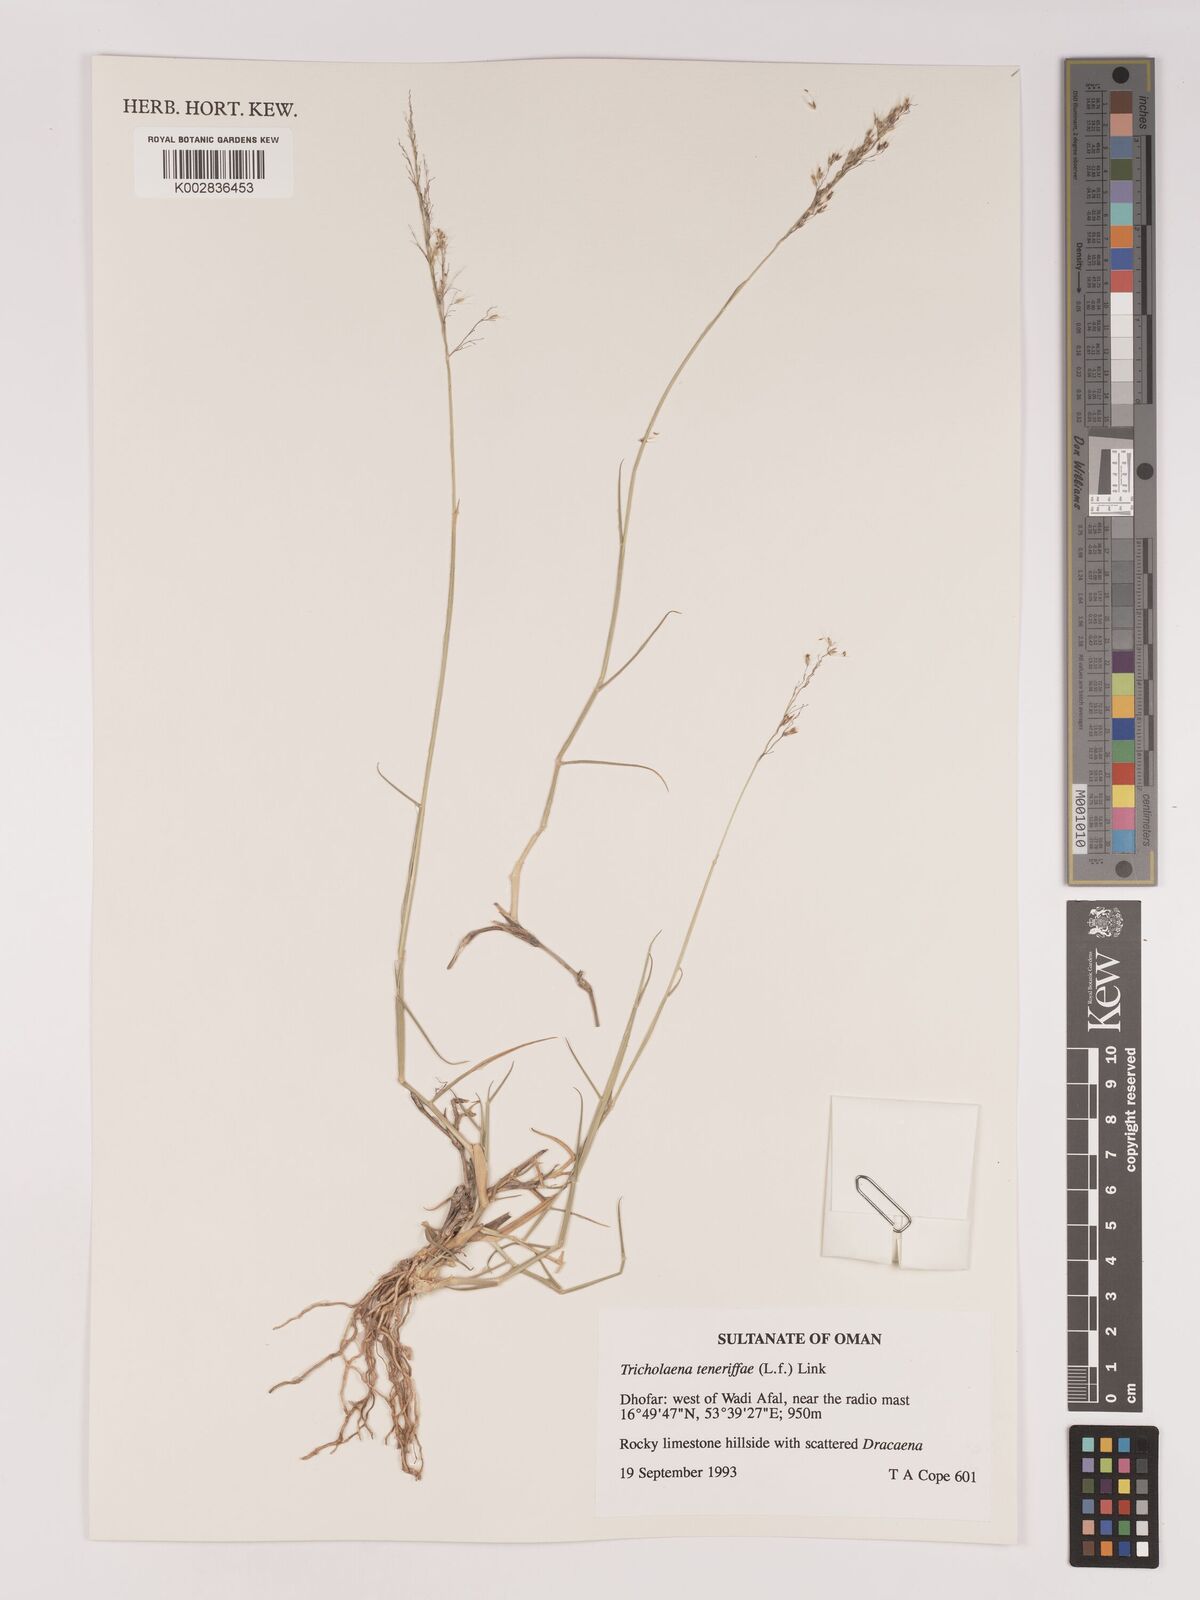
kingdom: Plantae
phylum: Tracheophyta
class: Liliopsida
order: Poales
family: Poaceae
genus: Tricholaena
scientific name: Tricholaena teneriffae
